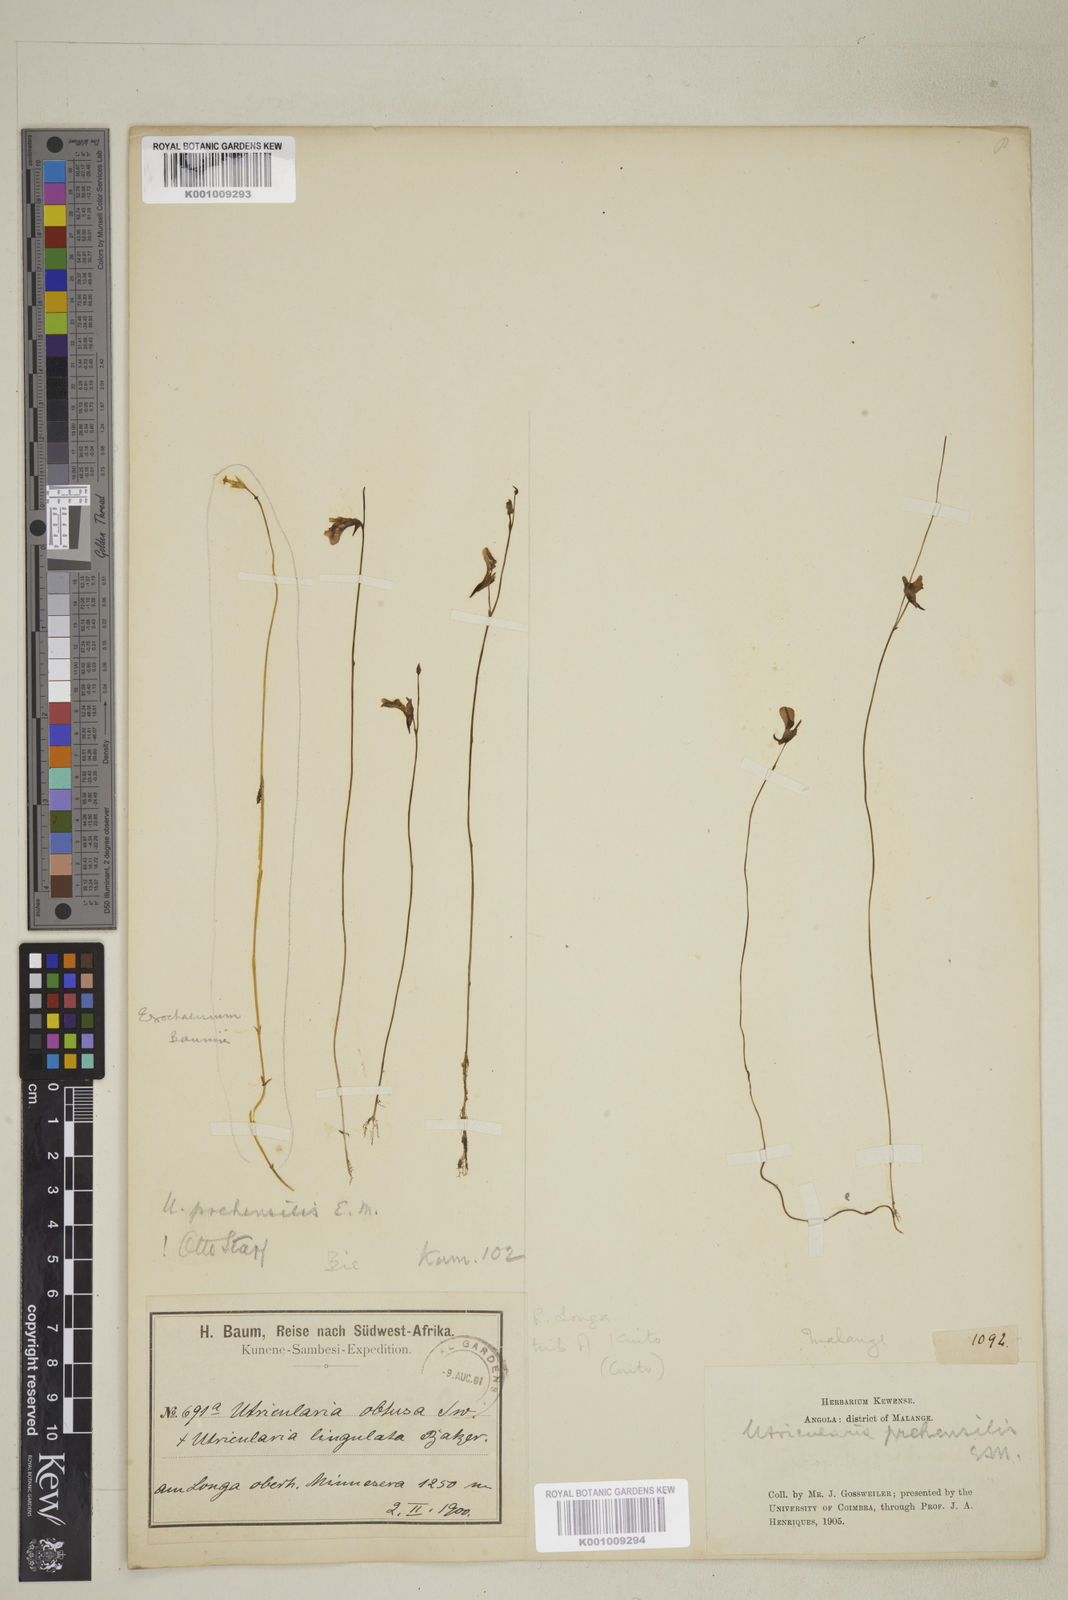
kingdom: Plantae
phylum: Tracheophyta
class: Magnoliopsida
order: Lamiales
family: Lentibulariaceae
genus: Utricularia
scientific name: Utricularia prehensilis
